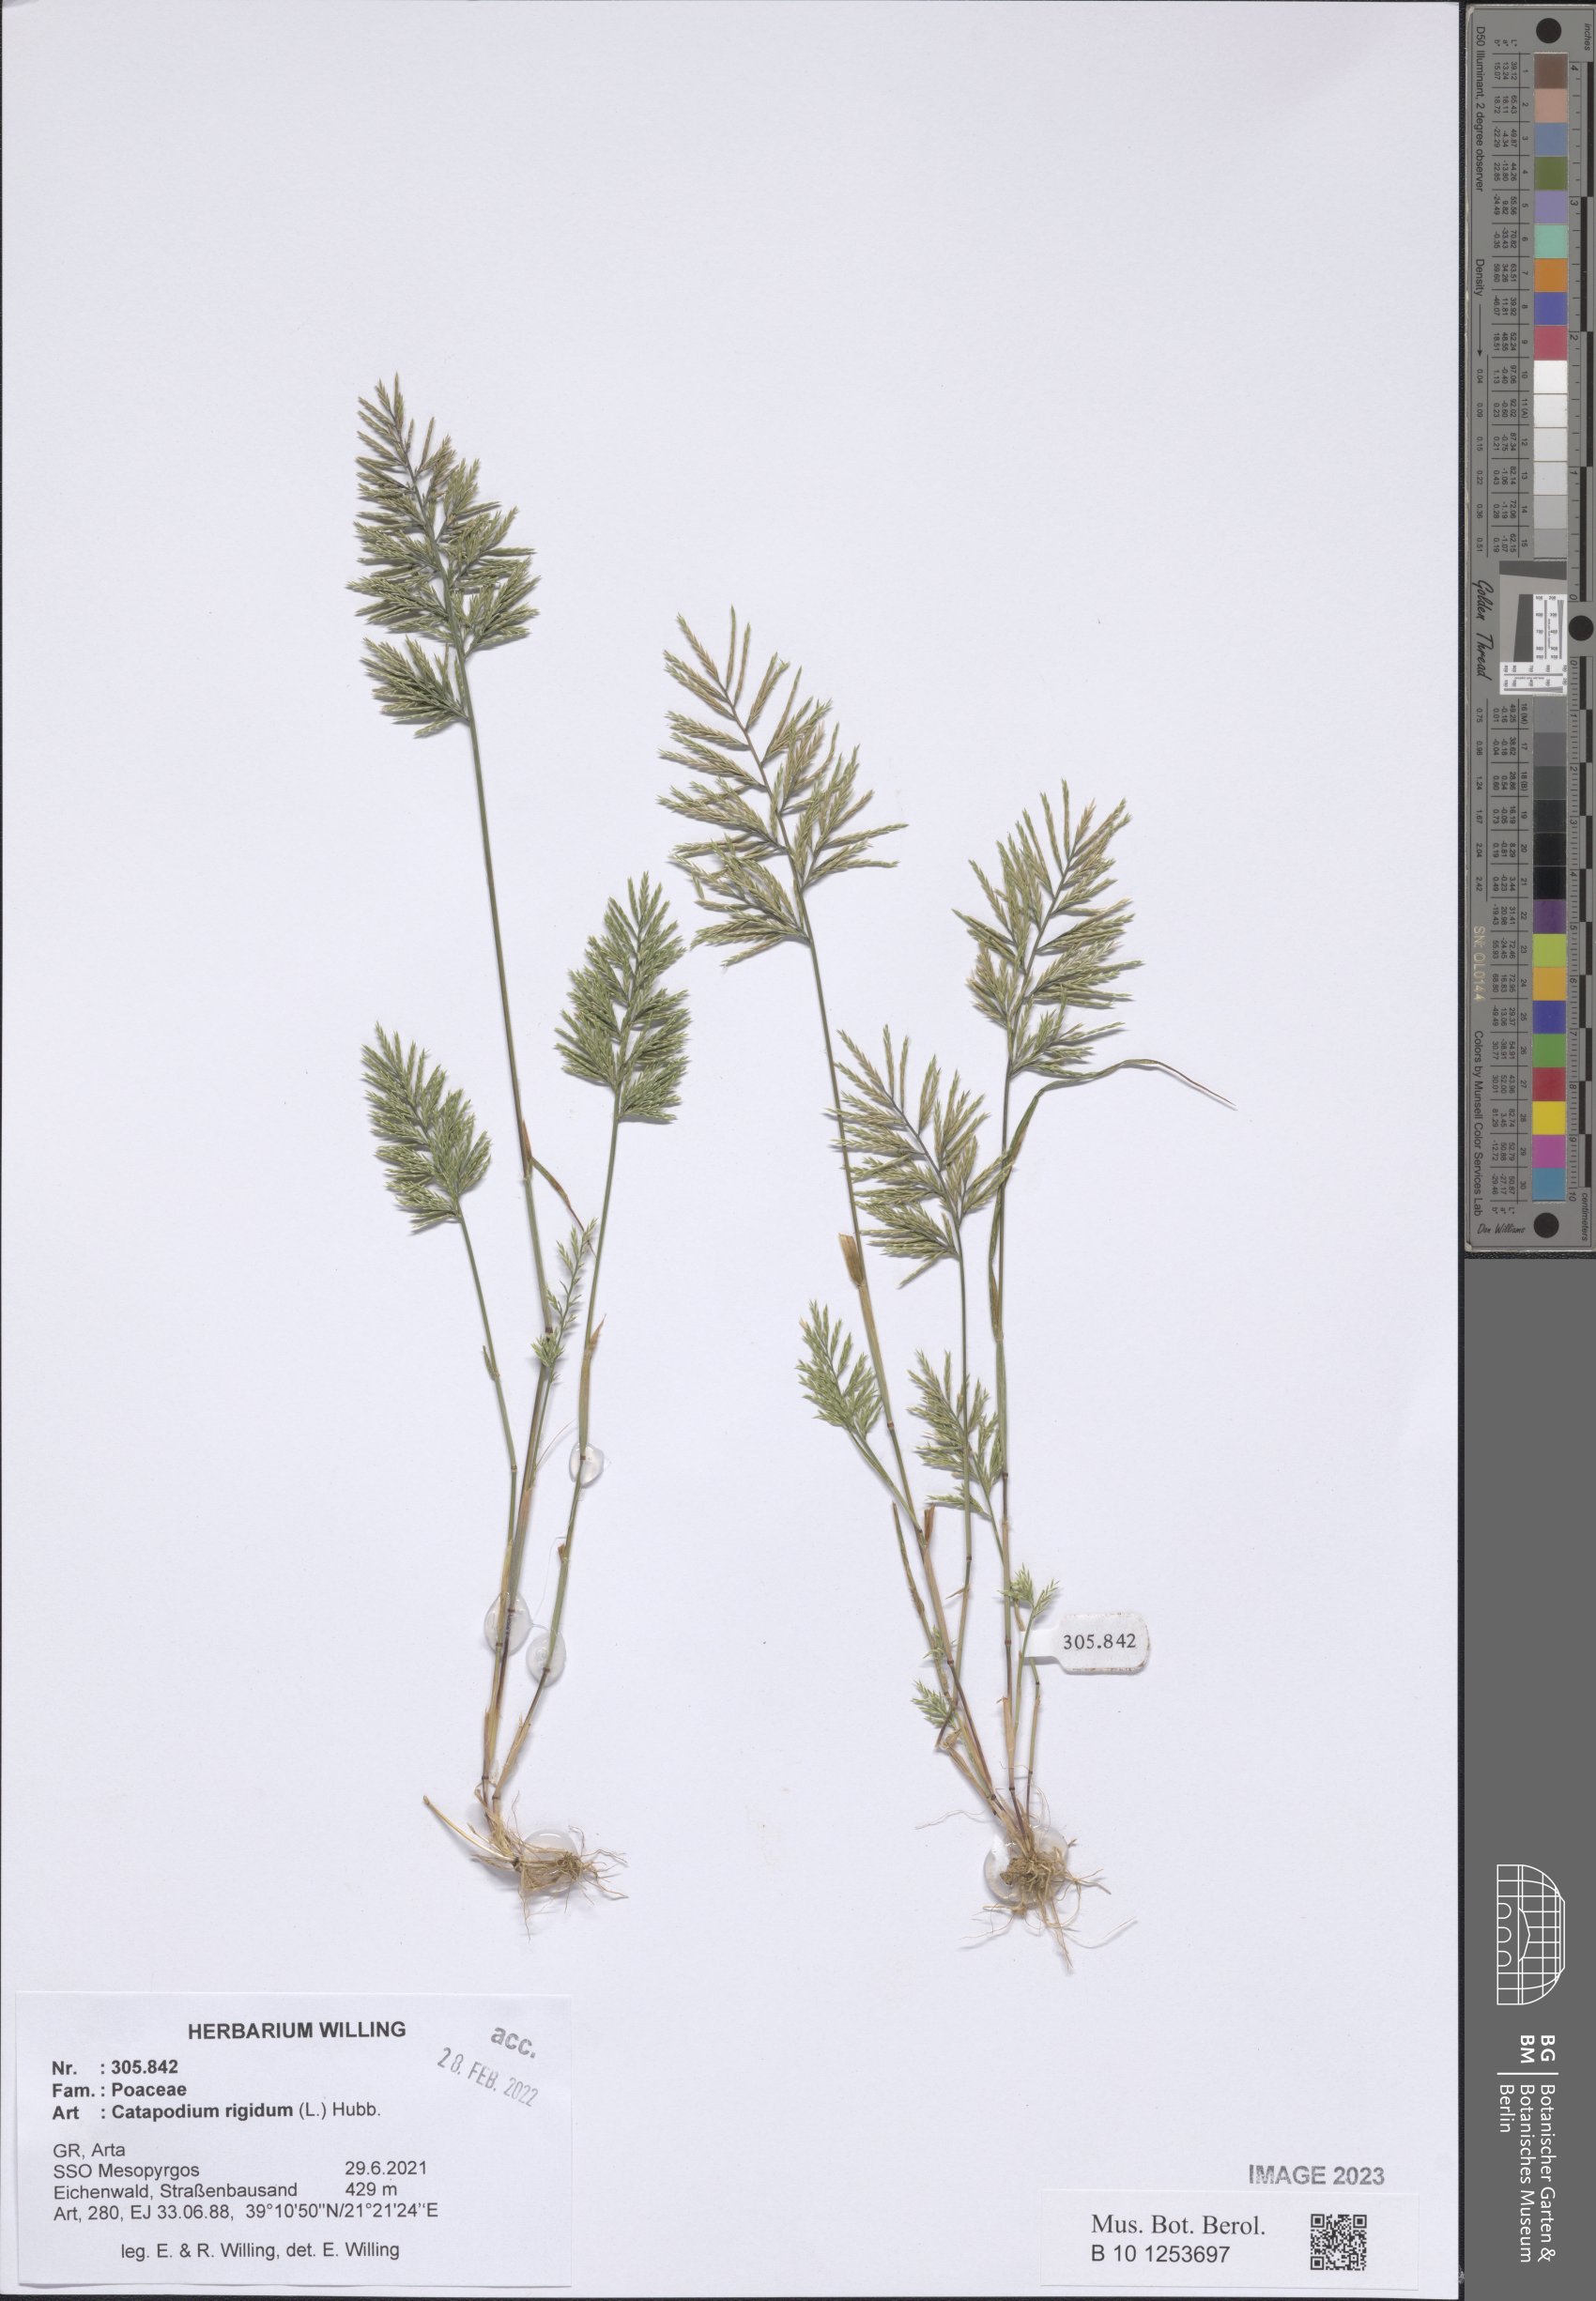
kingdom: Plantae
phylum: Tracheophyta
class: Liliopsida
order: Poales
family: Poaceae
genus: Catapodium
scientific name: Catapodium rigidum
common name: Fern-grass
